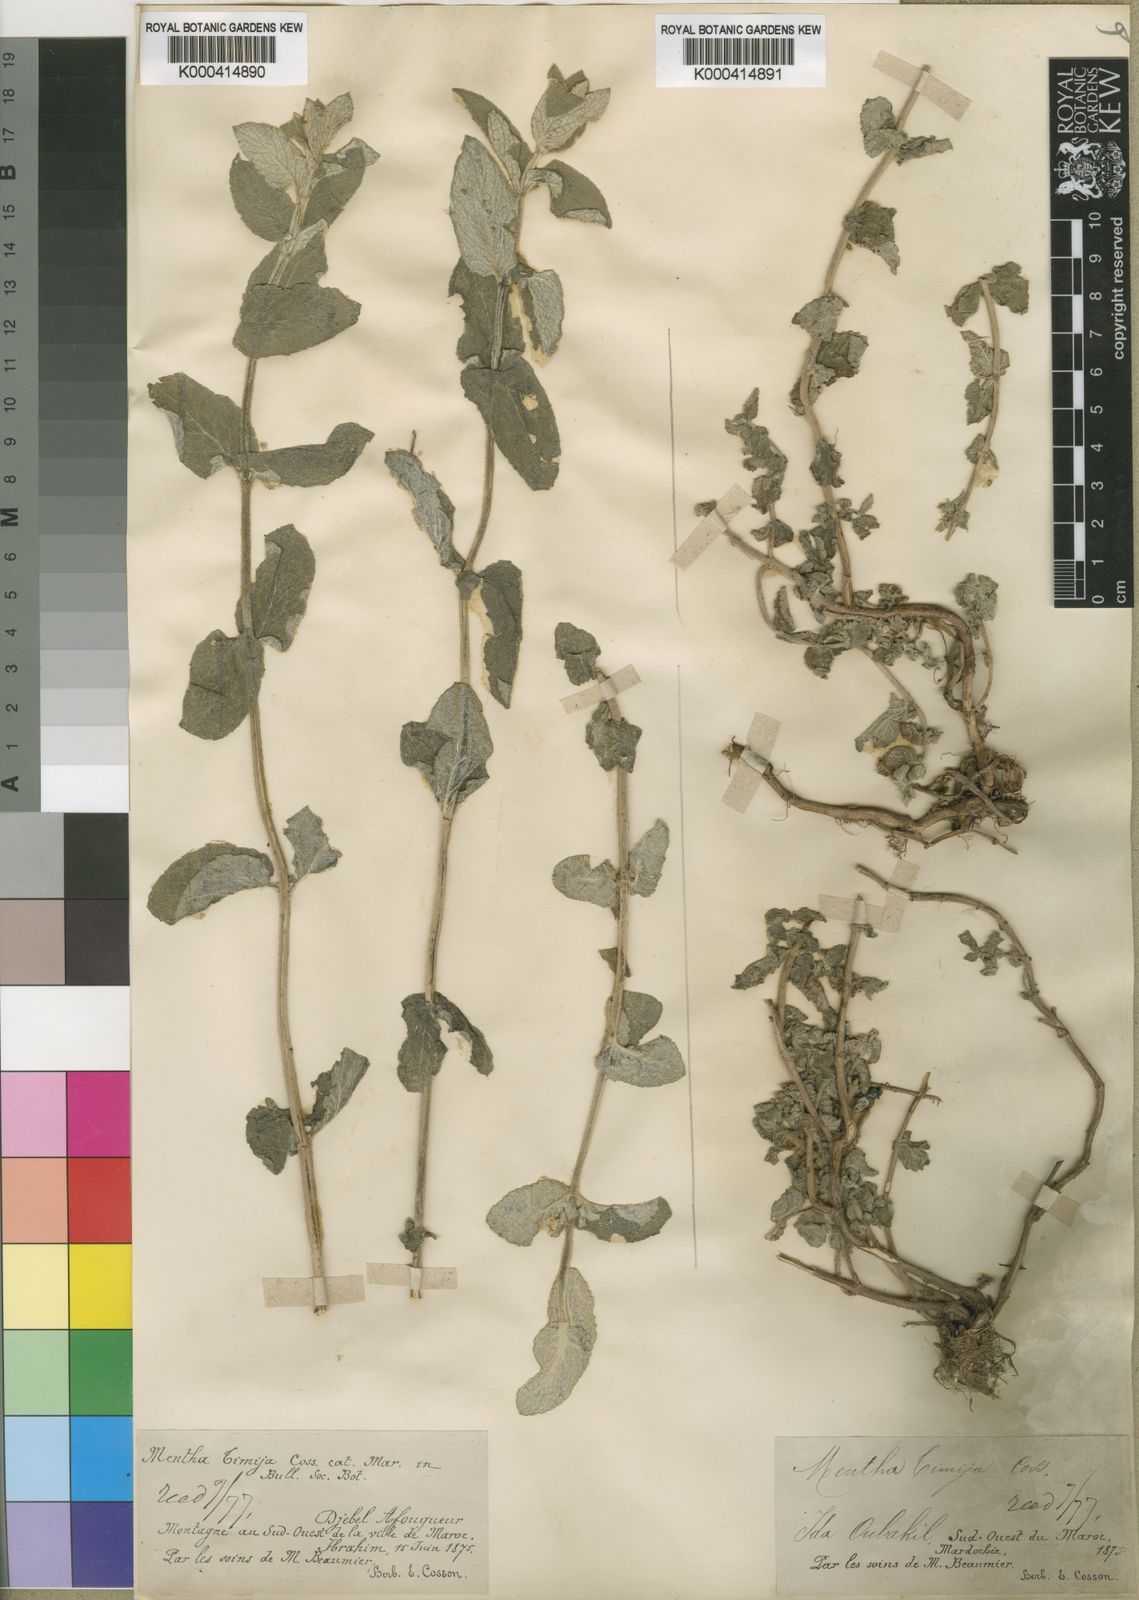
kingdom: Plantae
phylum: Tracheophyta
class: Magnoliopsida
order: Lamiales
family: Lamiaceae
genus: Mentha
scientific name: Mentha
